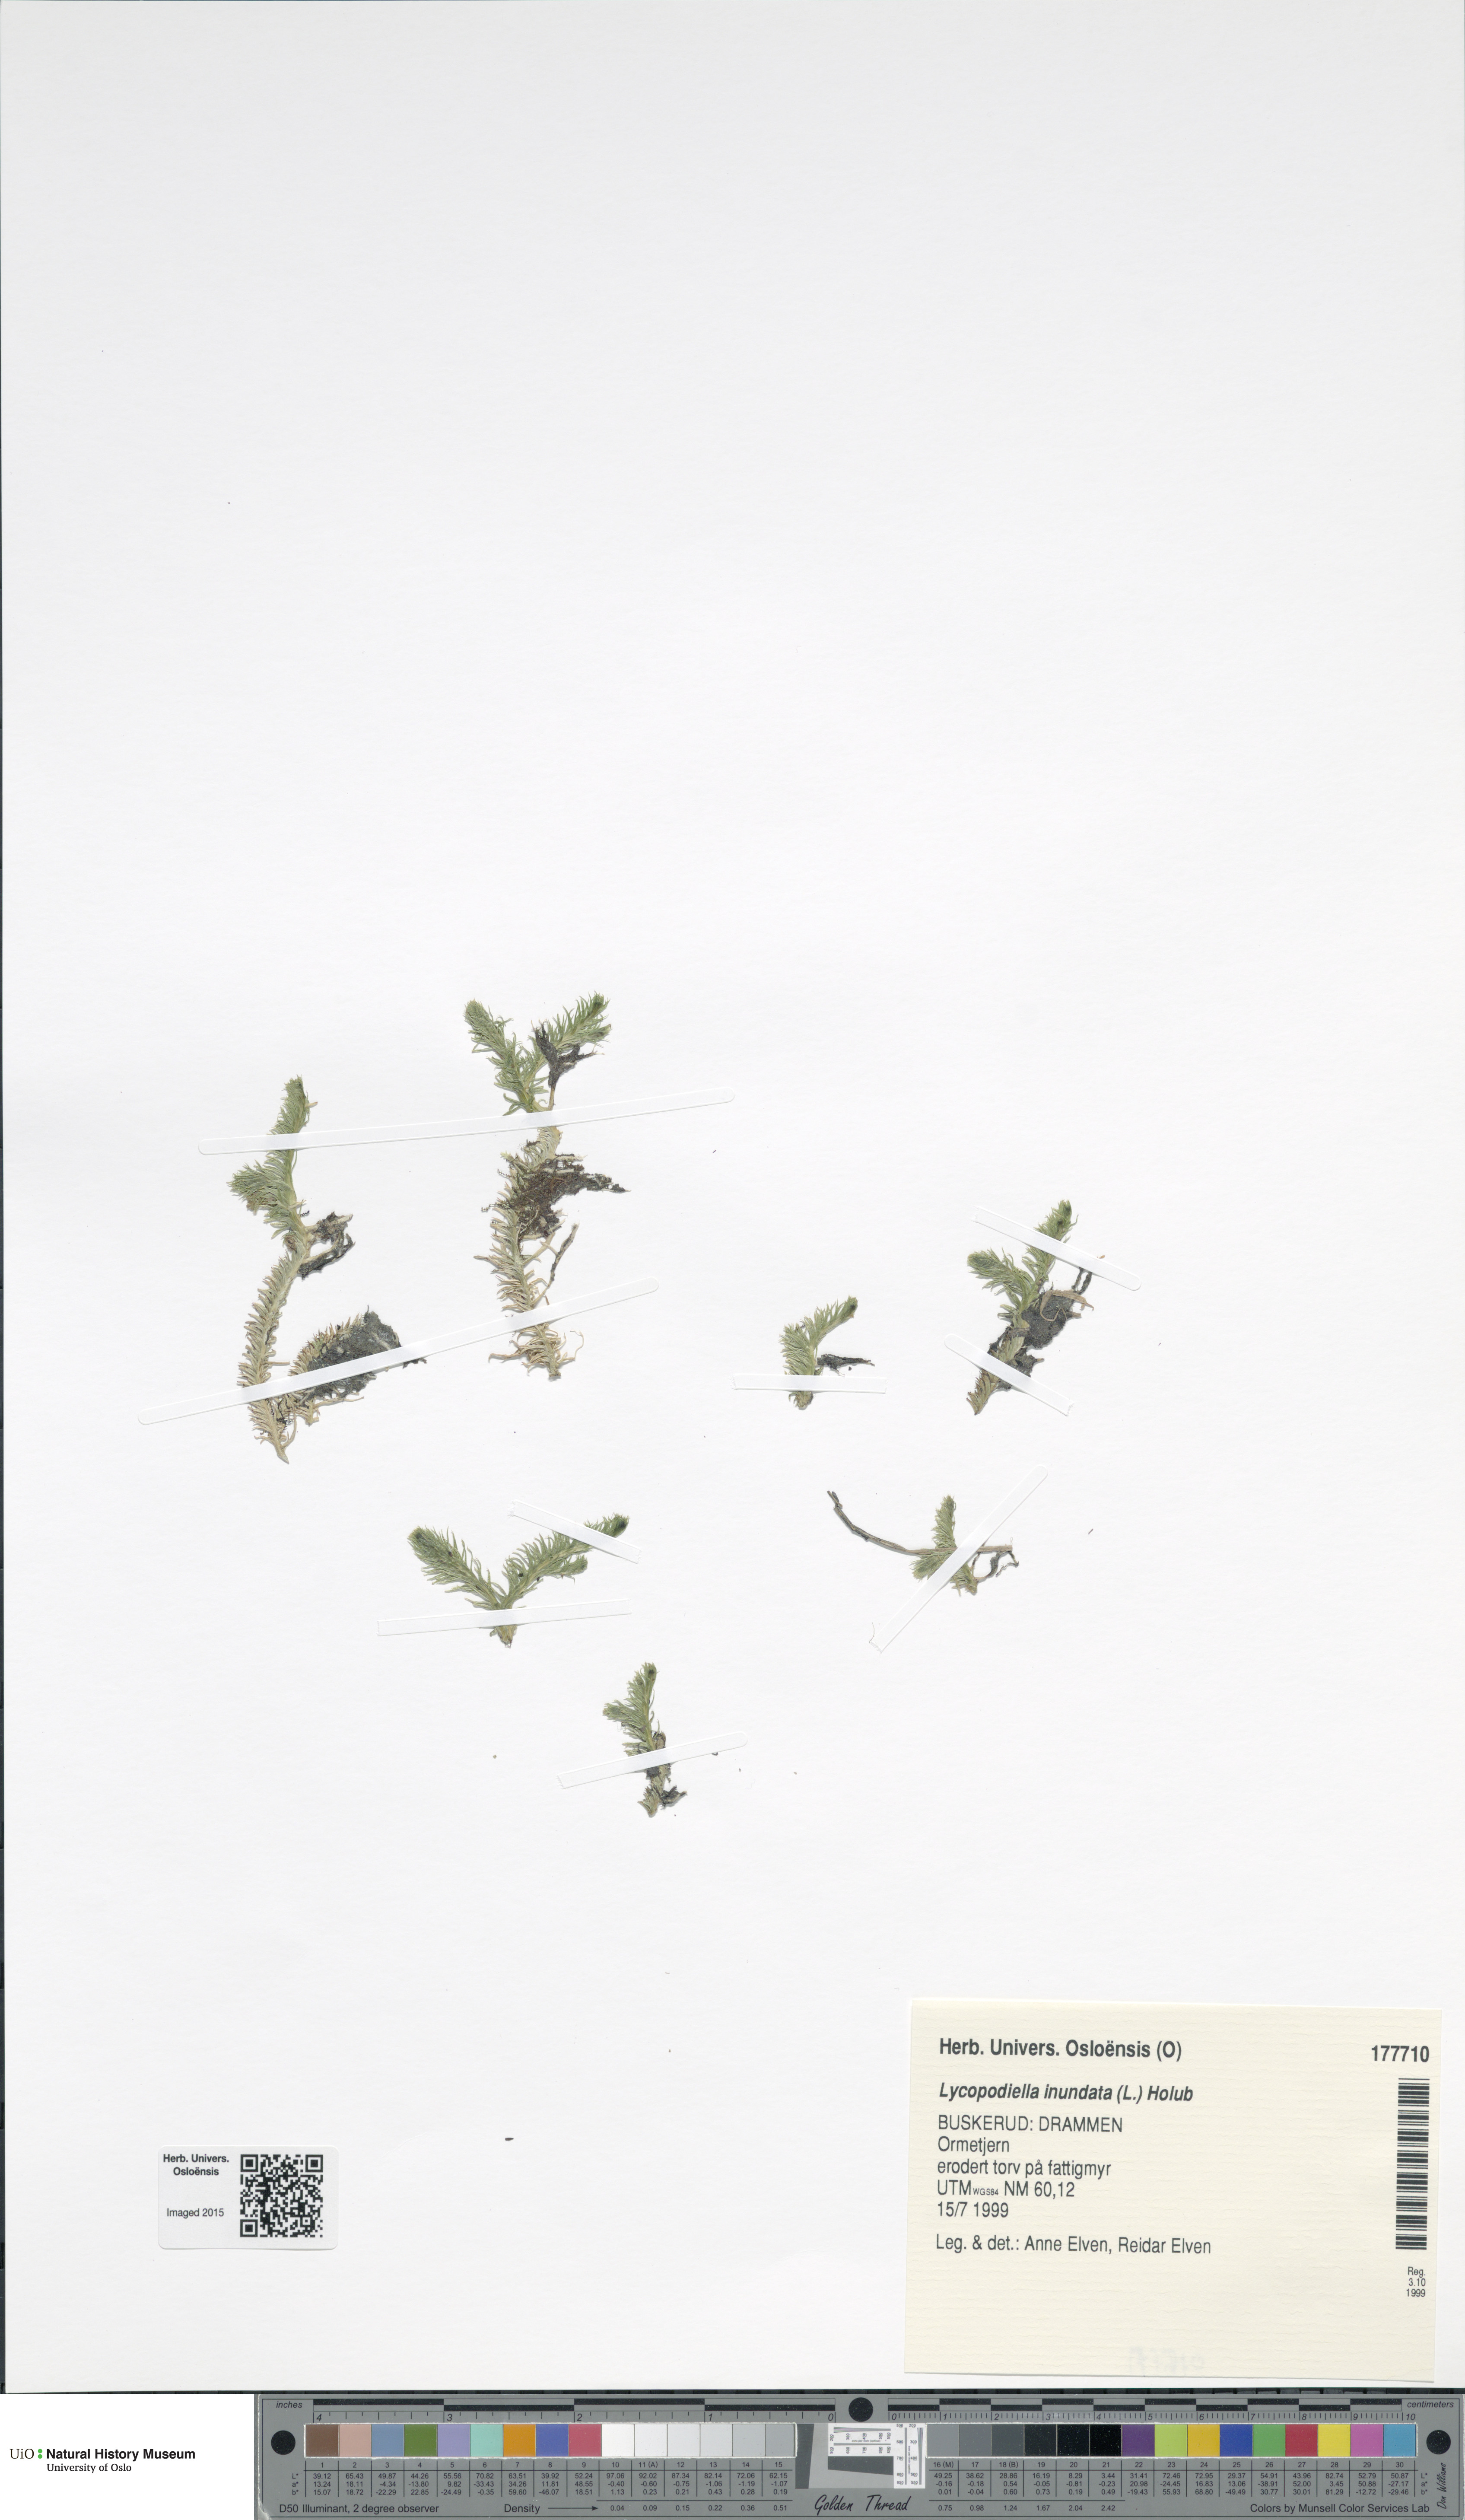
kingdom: Plantae
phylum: Tracheophyta
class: Lycopodiopsida
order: Lycopodiales
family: Lycopodiaceae
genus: Lycopodiella
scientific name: Lycopodiella inundata
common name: Marsh clubmoss
